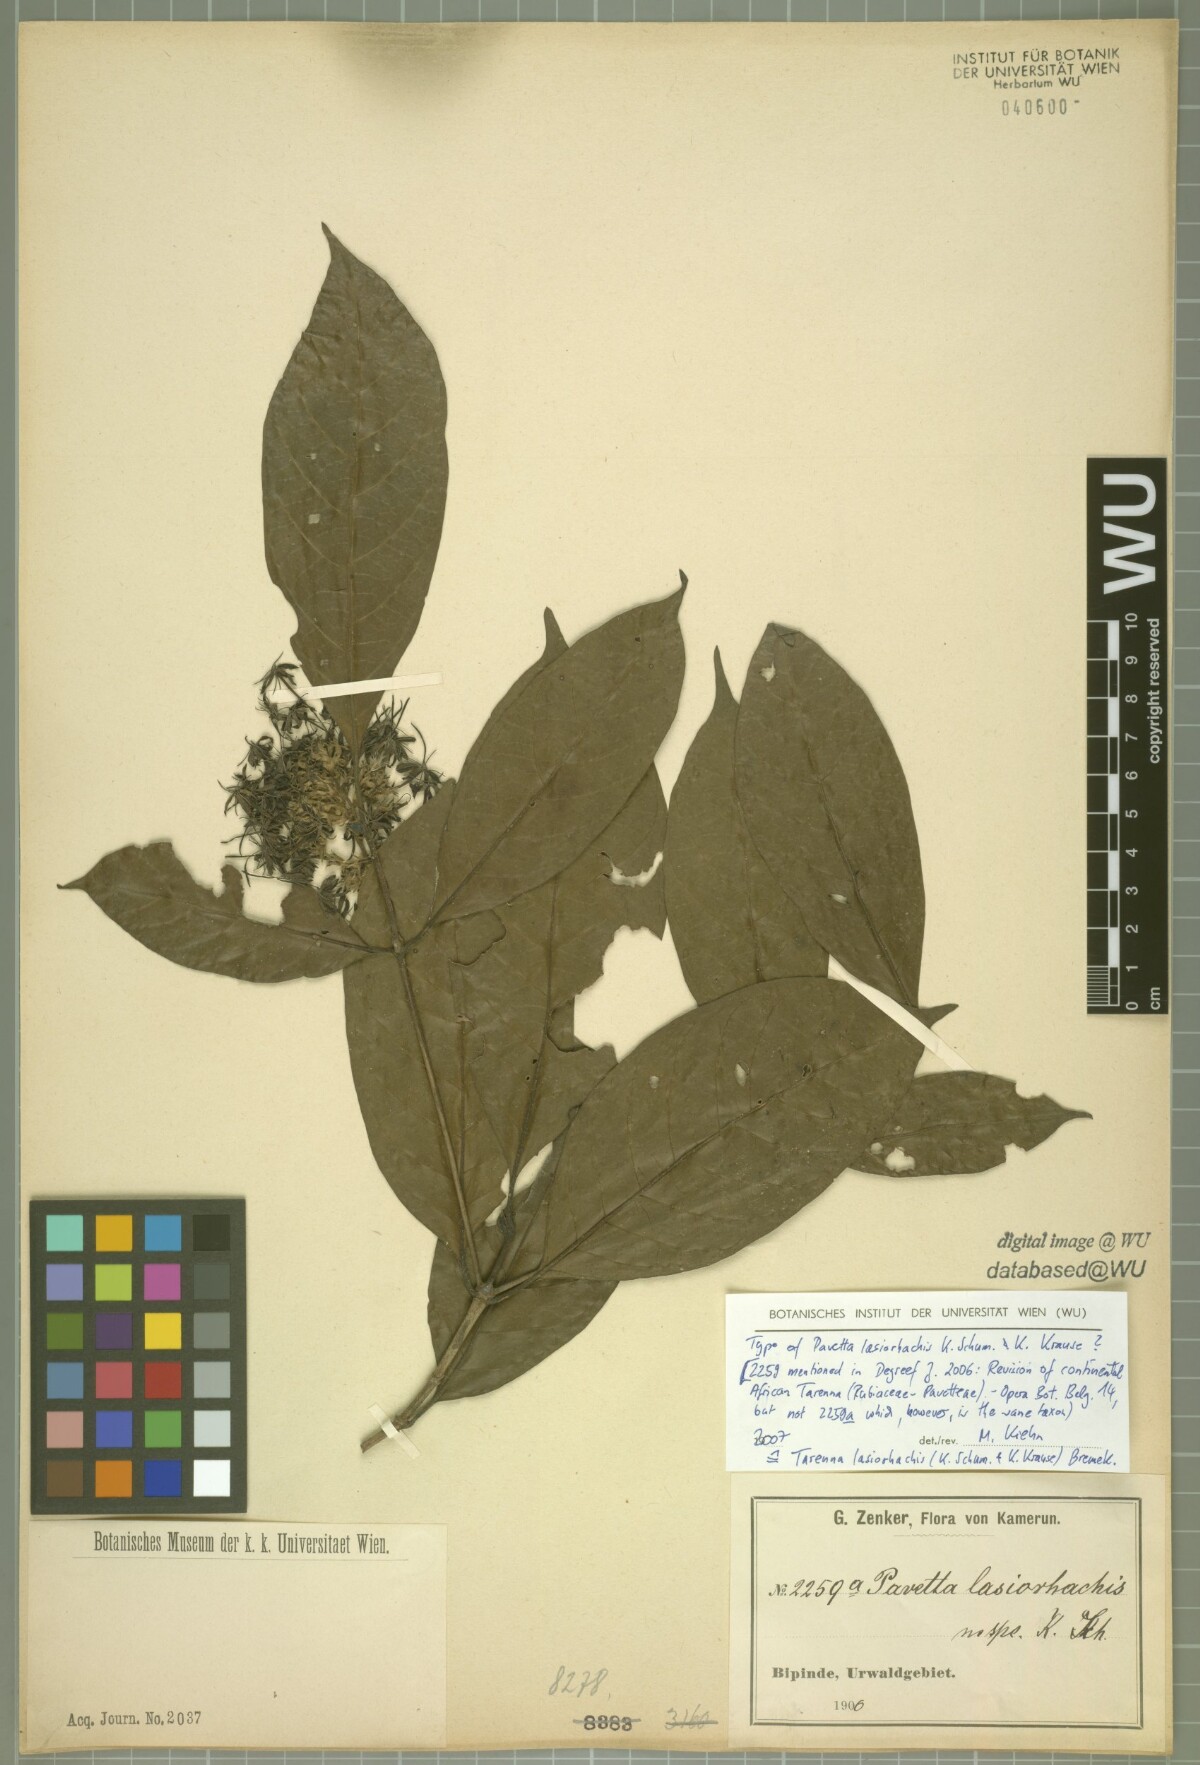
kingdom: Plantae
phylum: Tracheophyta
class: Magnoliopsida
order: Gentianales
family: Rubiaceae
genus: Tarenna
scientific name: Tarenna lasiorhachis
